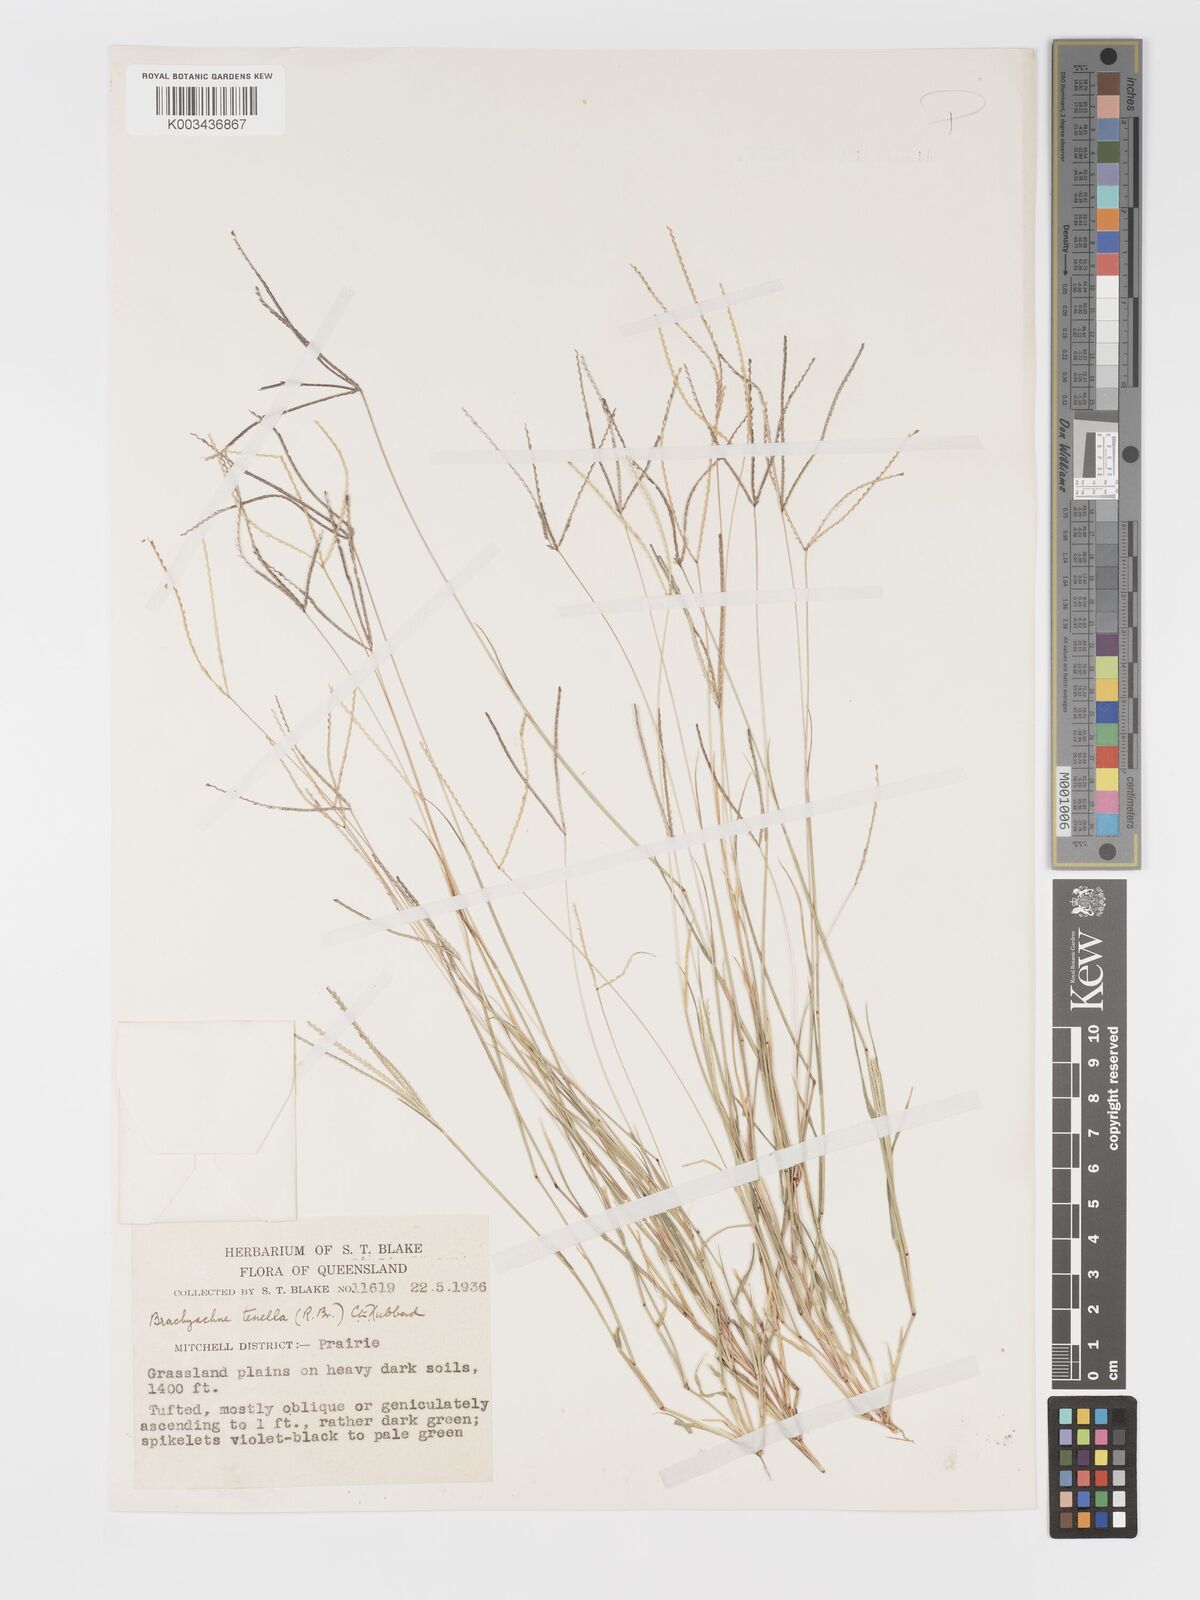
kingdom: Plantae
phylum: Tracheophyta
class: Liliopsida
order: Poales
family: Poaceae
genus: Cynodon
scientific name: Cynodon tenellus
